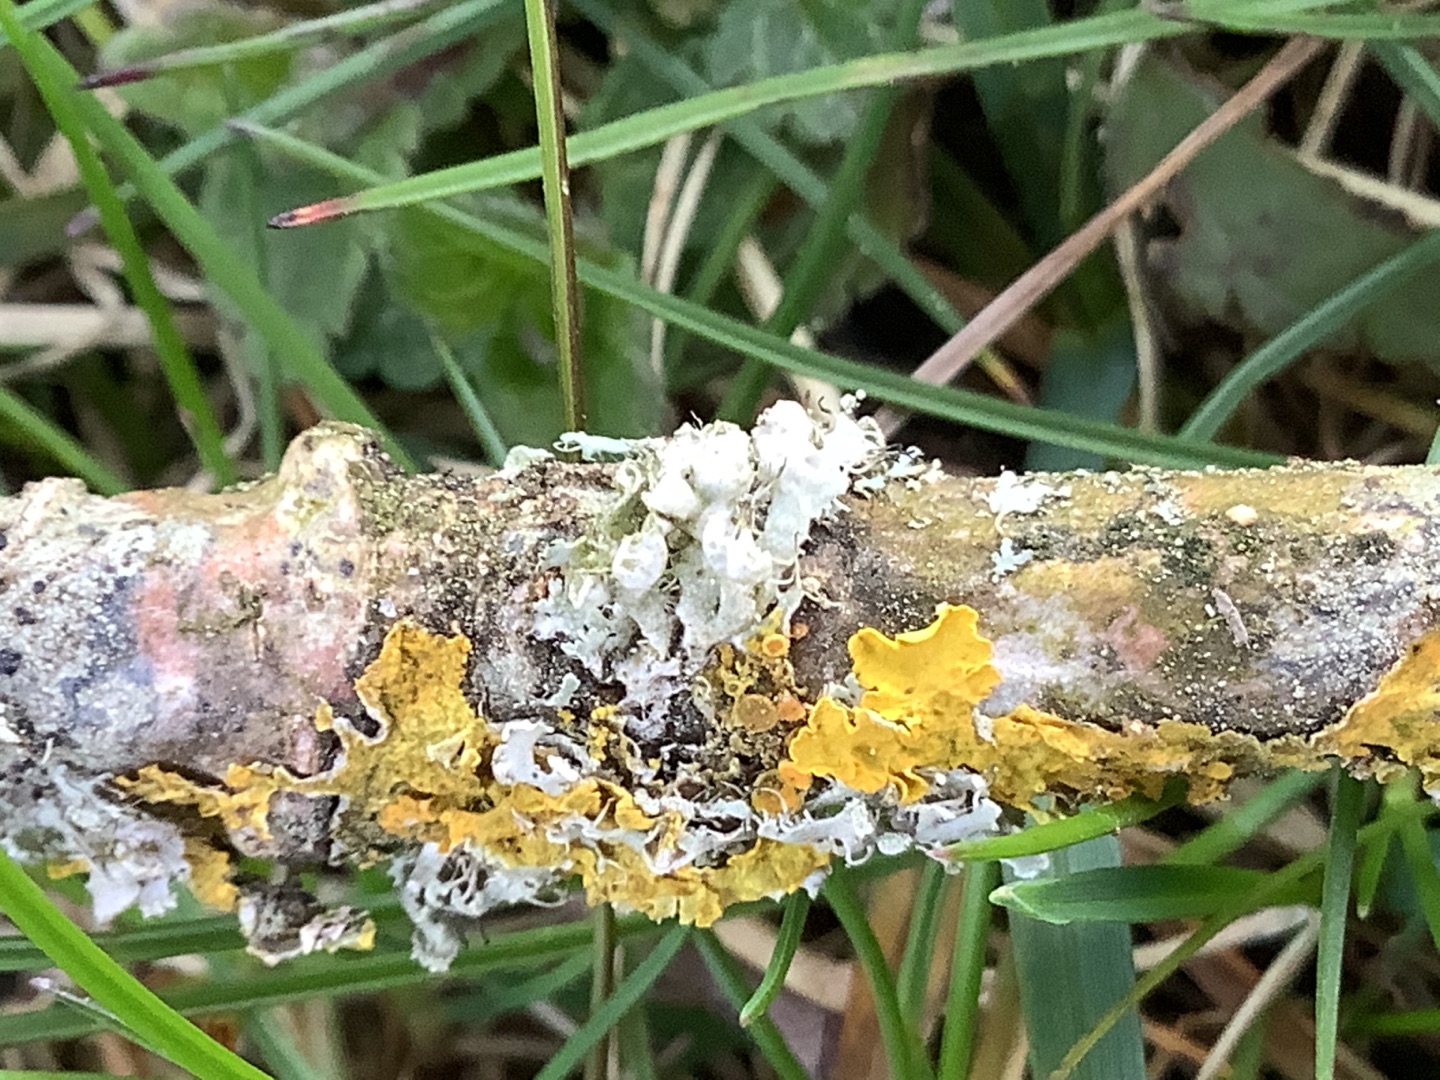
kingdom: Fungi
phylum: Ascomycota
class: Lecanoromycetes
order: Caliciales
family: Physciaceae
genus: Physcia
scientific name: Physcia adscendens
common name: Hætte-rosetlav
